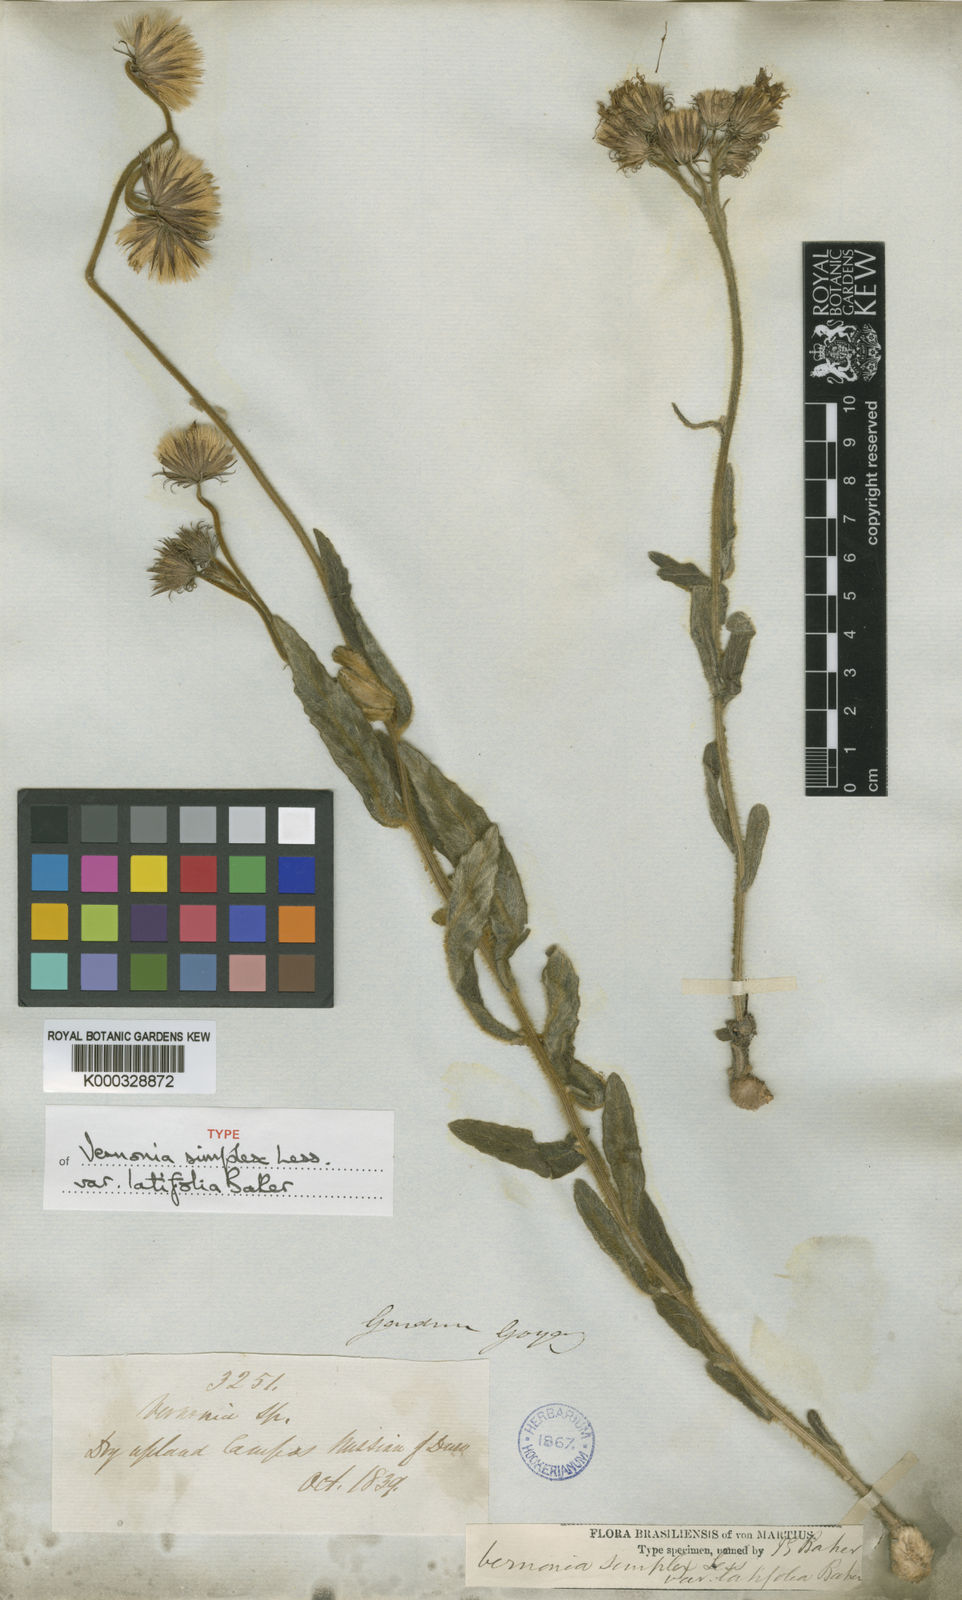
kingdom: Plantae
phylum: Tracheophyta
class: Magnoliopsida
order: Asterales
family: Asteraceae
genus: Chrysolaena
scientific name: Chrysolaena simplex
